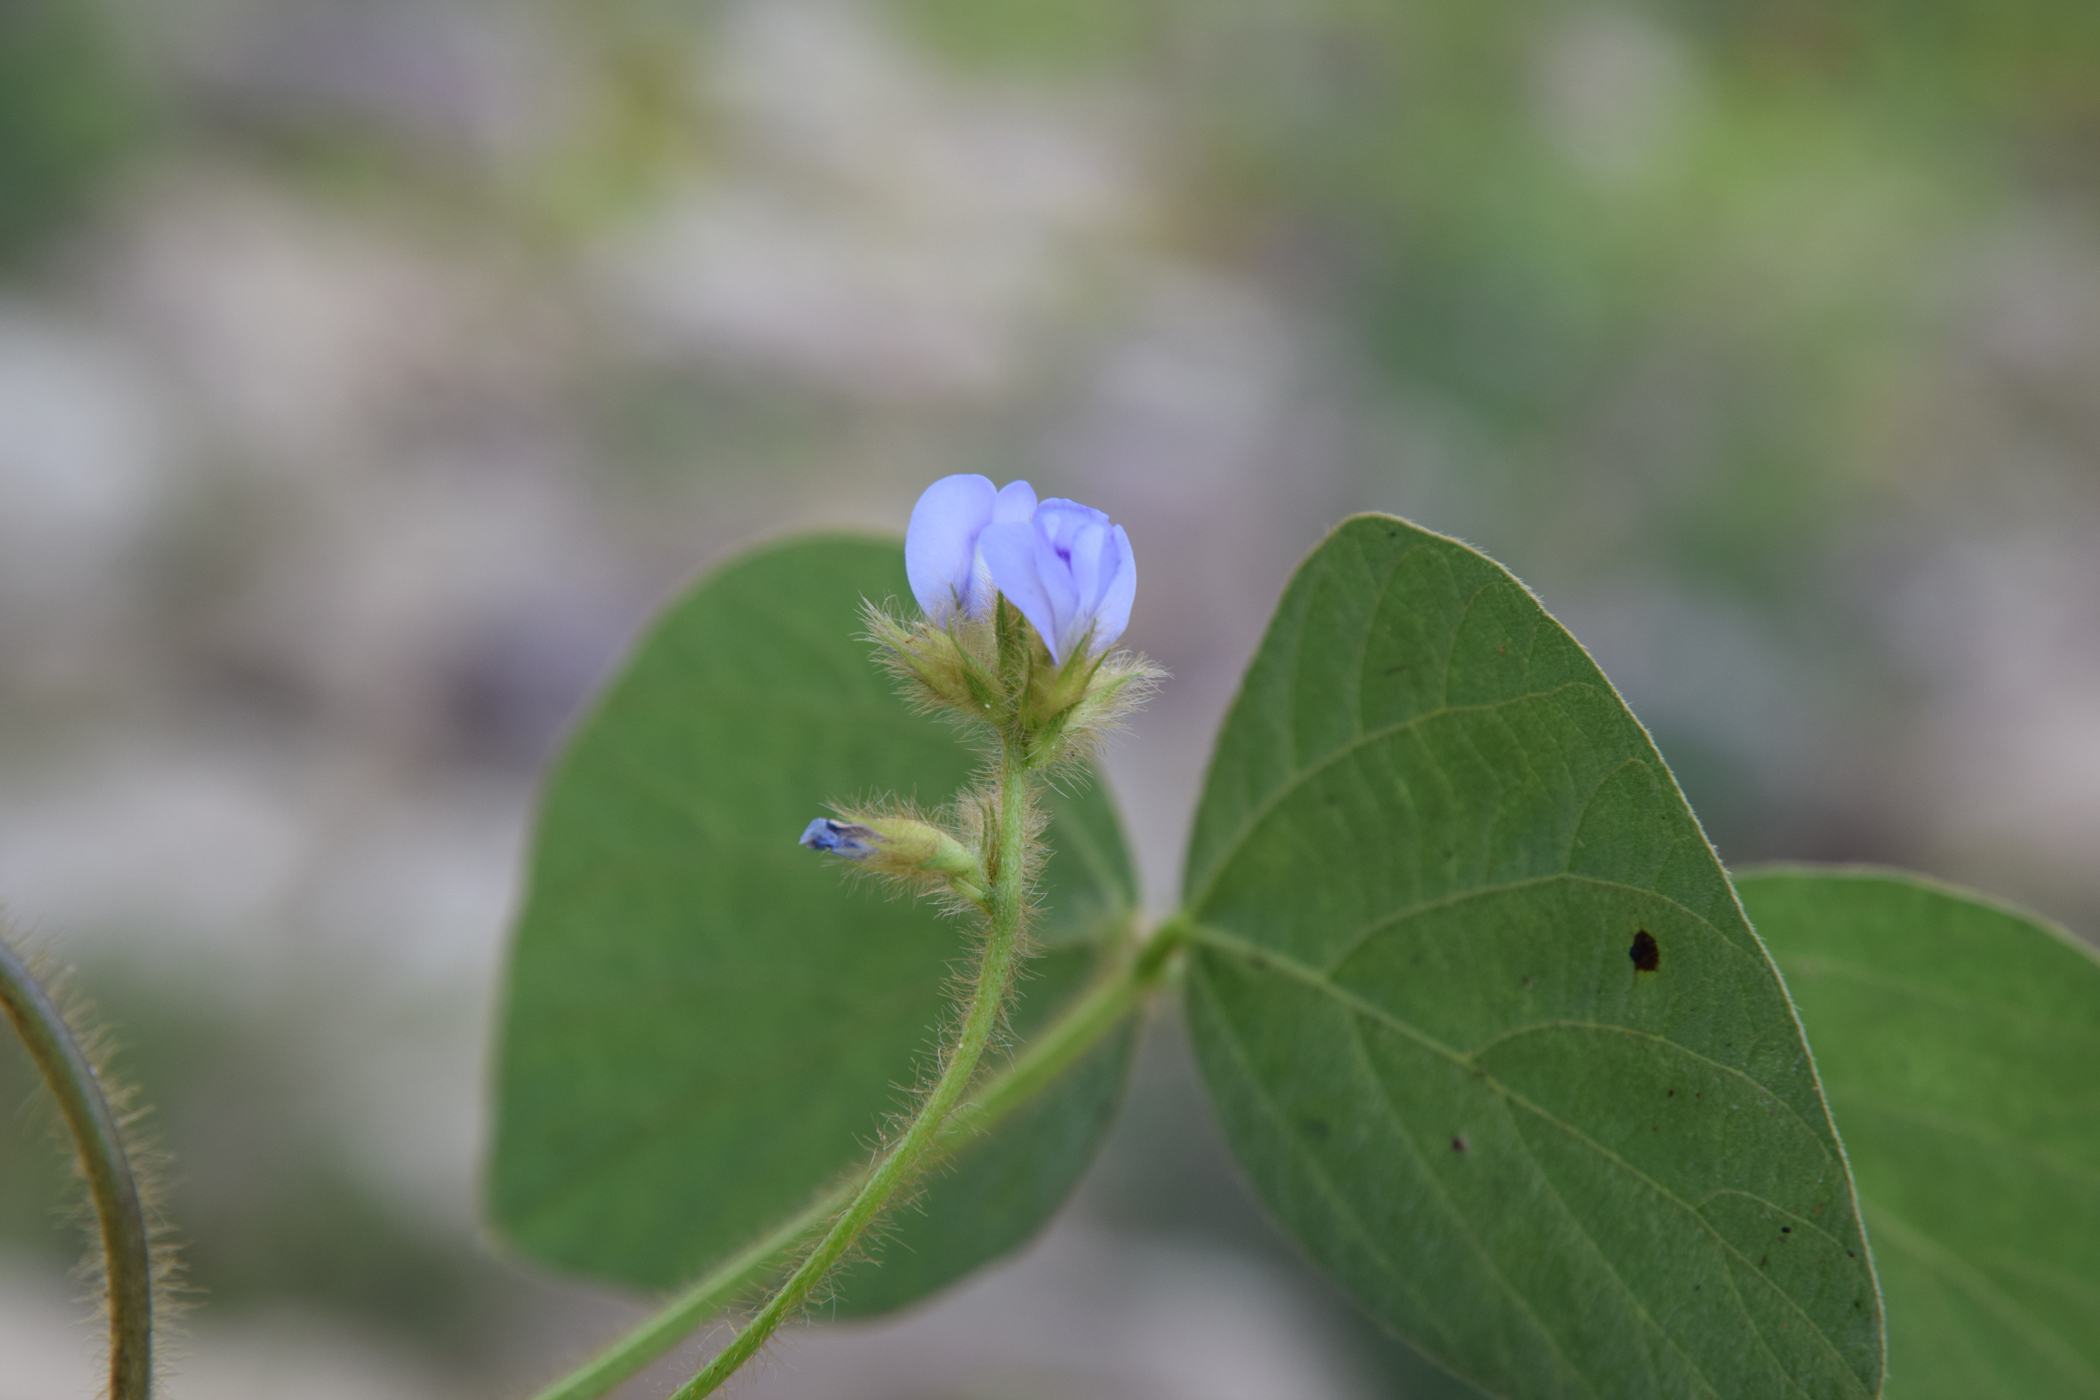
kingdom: Plantae
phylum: Tracheophyta
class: Magnoliopsida
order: Fabales
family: Fabaceae
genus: Calopogonium
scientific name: Calopogonium mucunoides
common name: Calopo
